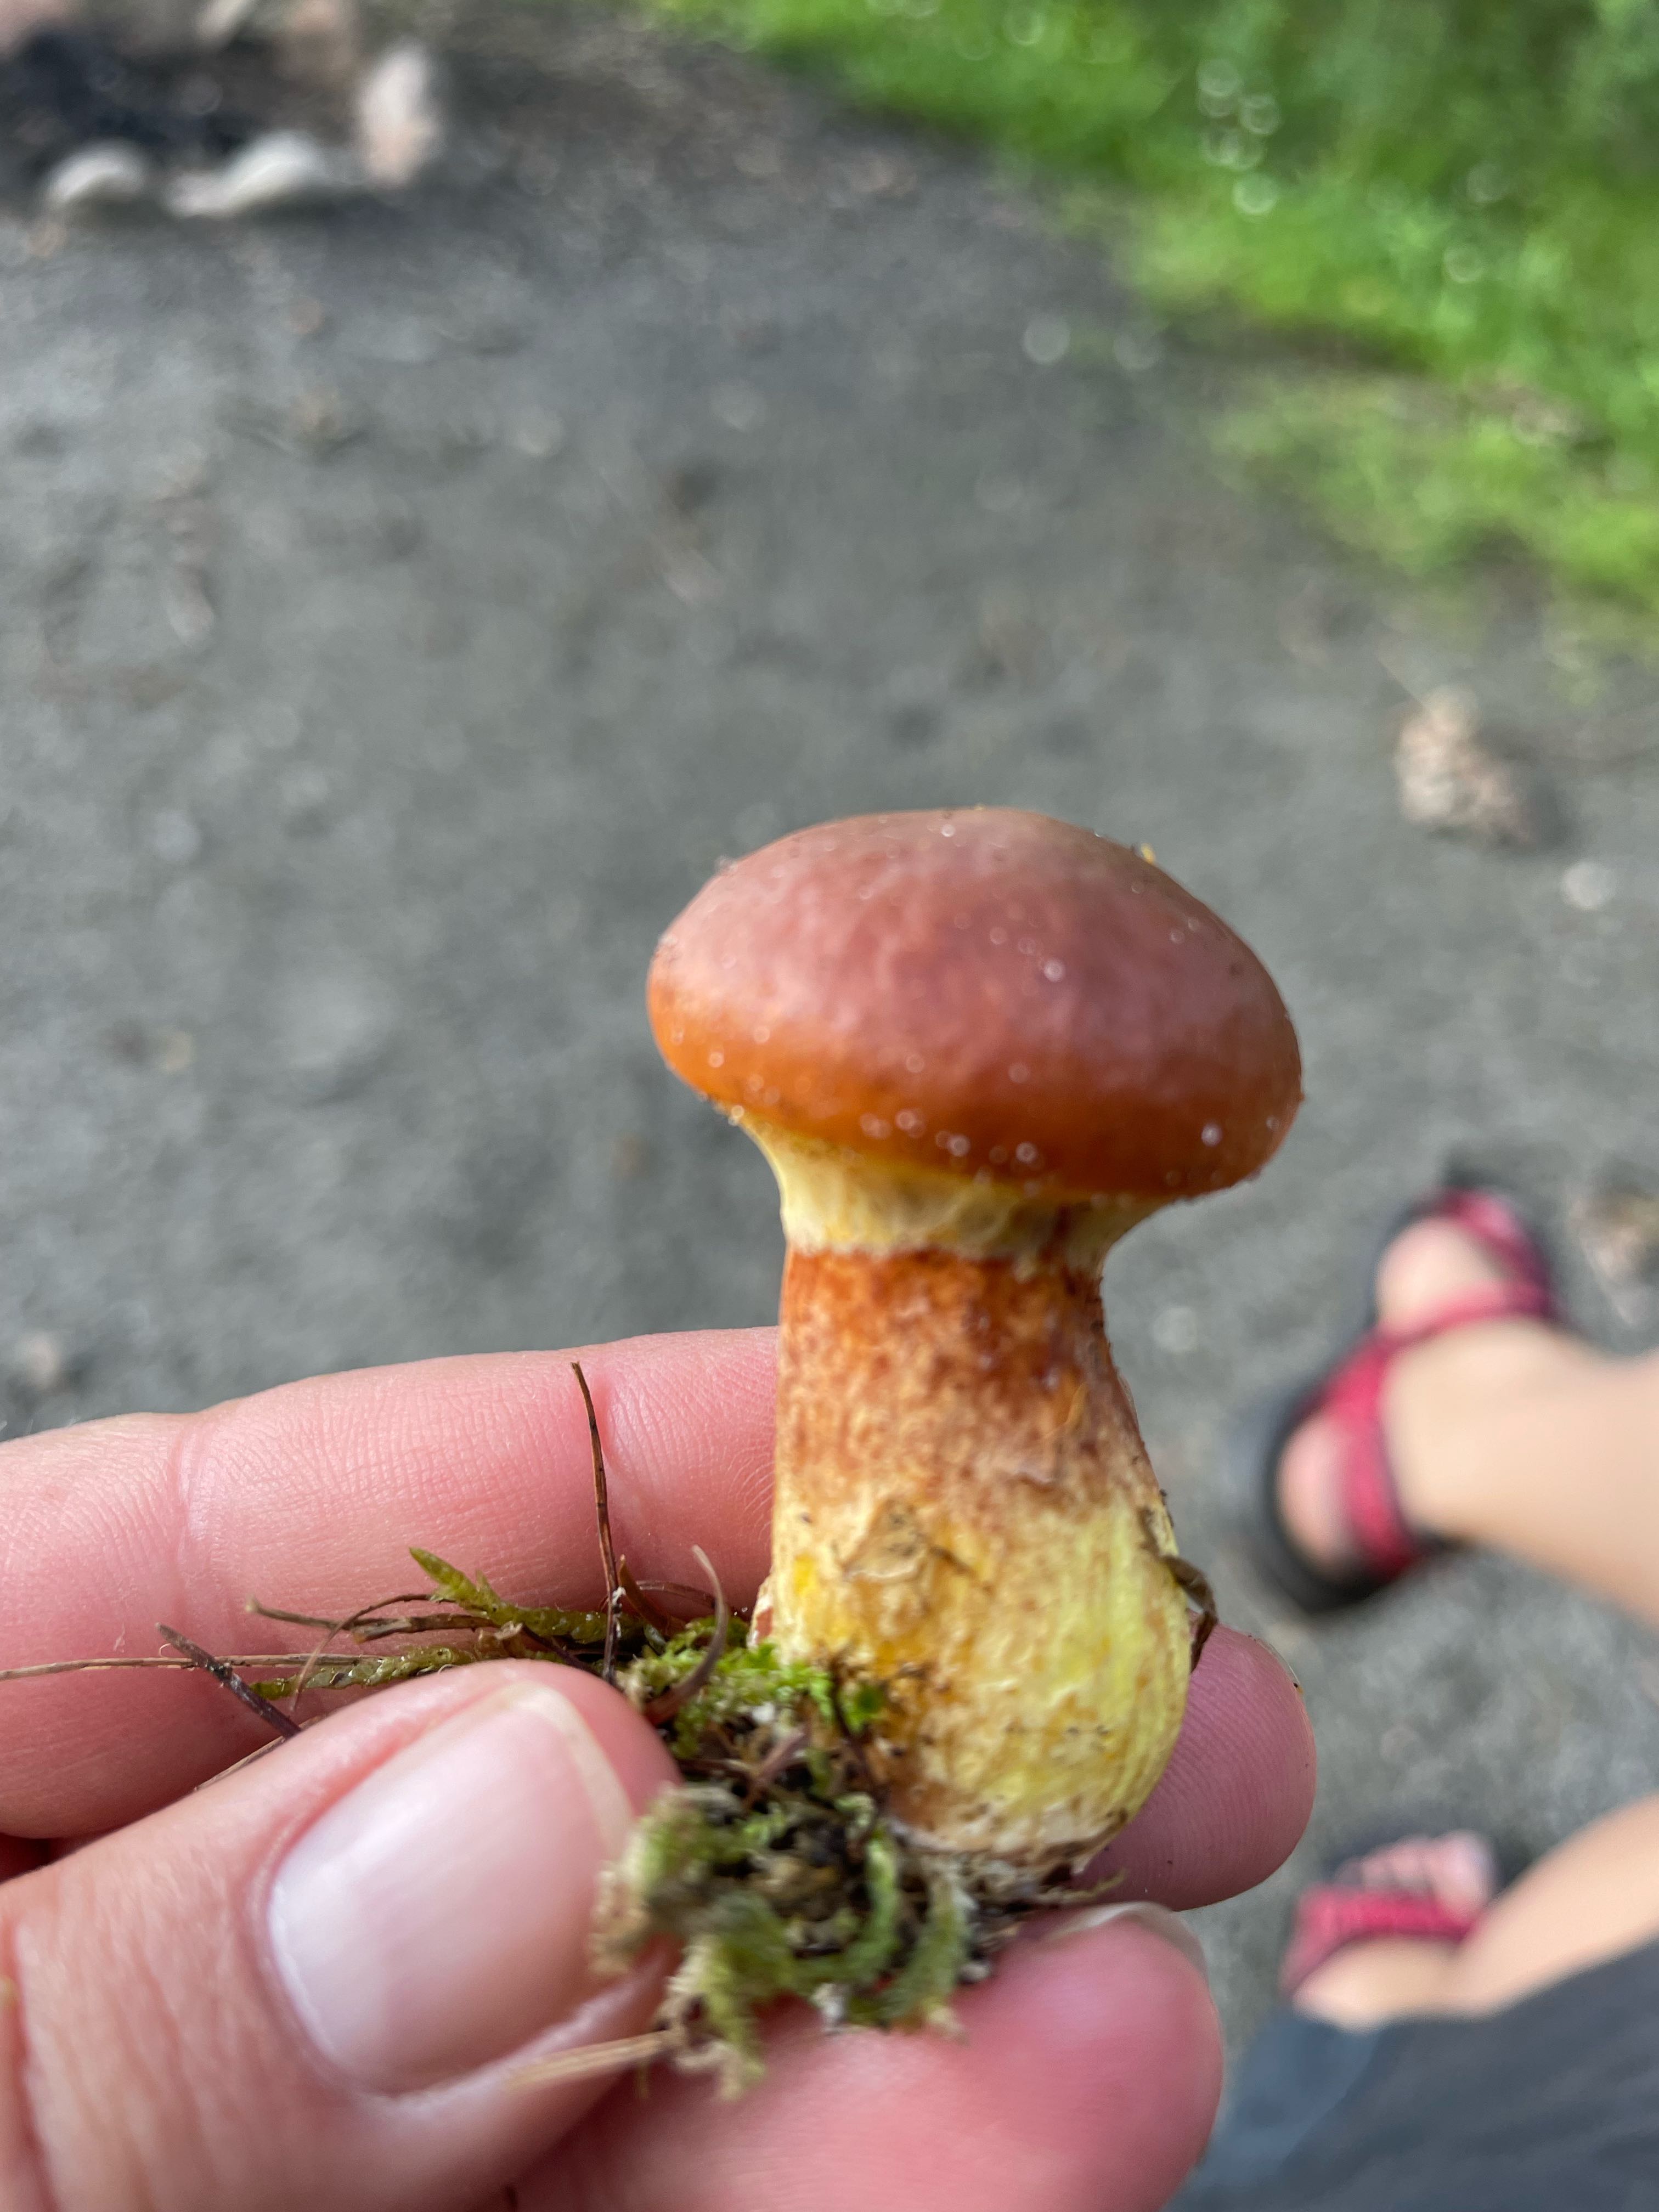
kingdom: Fungi
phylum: Basidiomycota
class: Agaricomycetes
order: Boletales
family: Suillaceae
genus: Suillus
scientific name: Suillus grevillei
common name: lærke-slimrørhat
